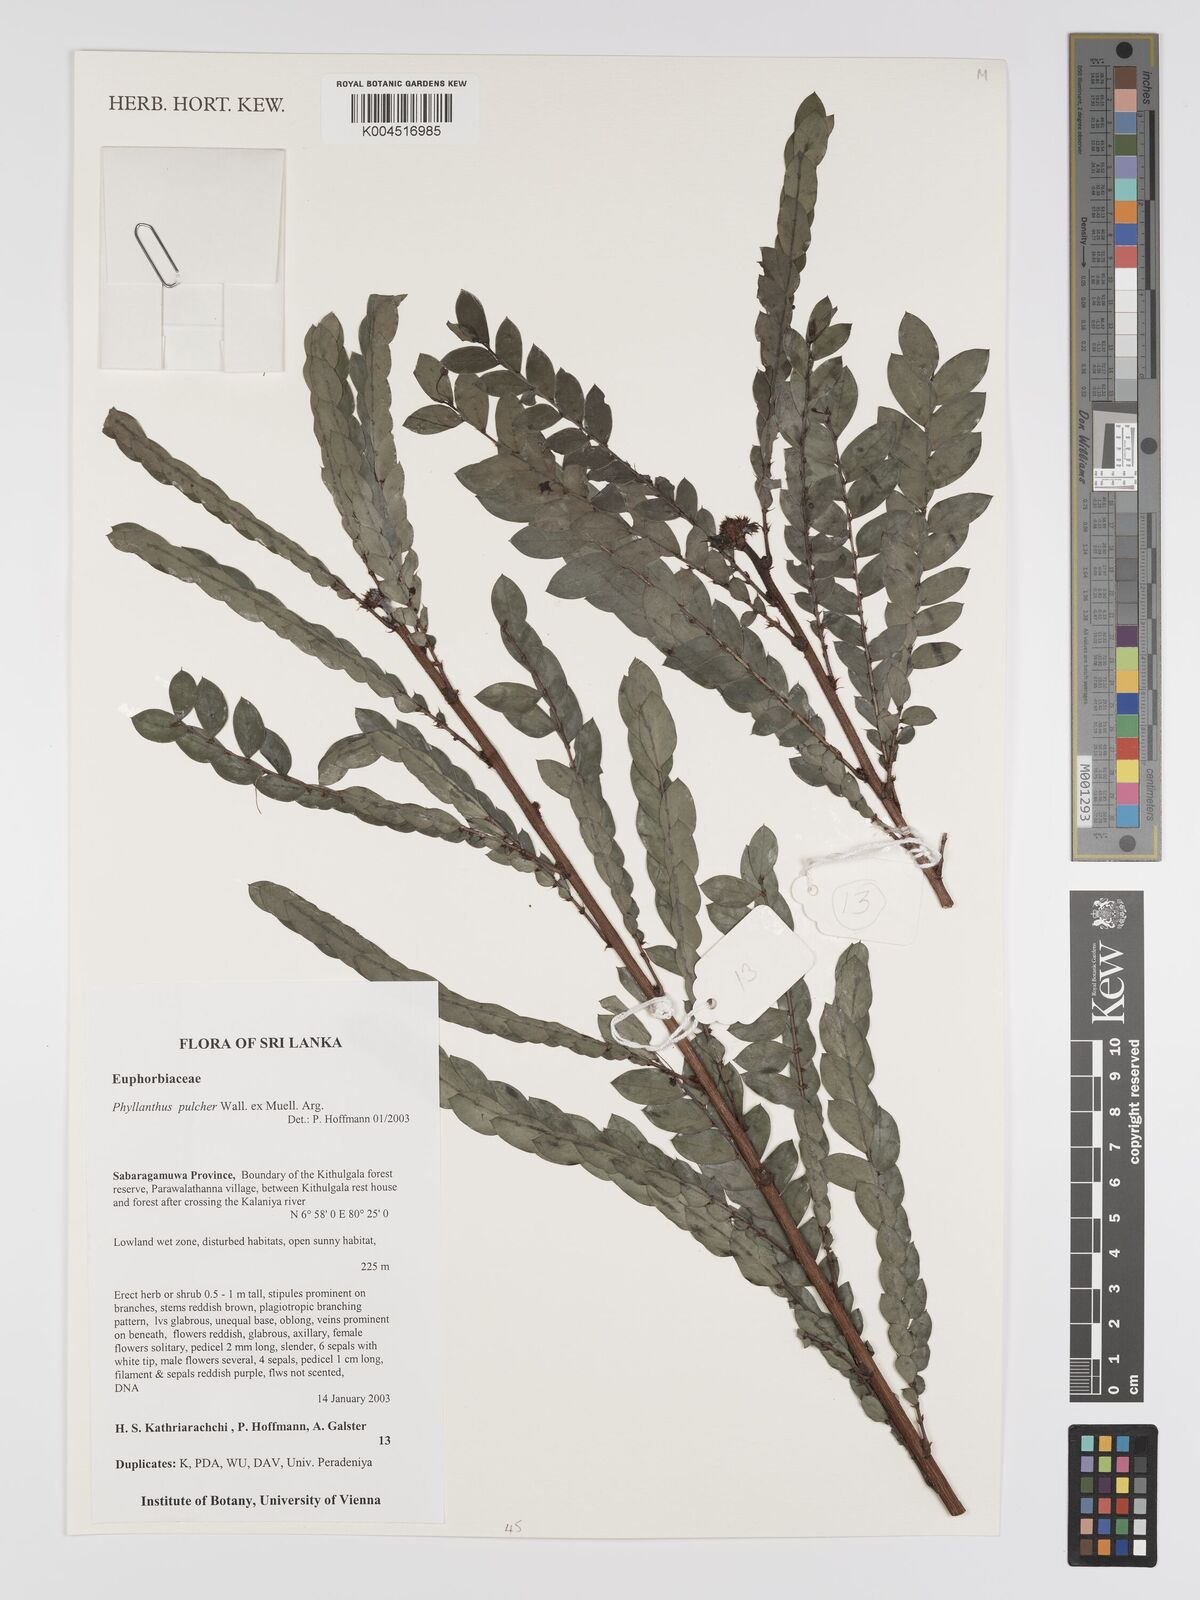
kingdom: Plantae
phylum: Tracheophyta
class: Magnoliopsida
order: Malpighiales
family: Phyllanthaceae
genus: Phyllanthus
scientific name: Phyllanthus pulcher
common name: Dragon-of-the-world
